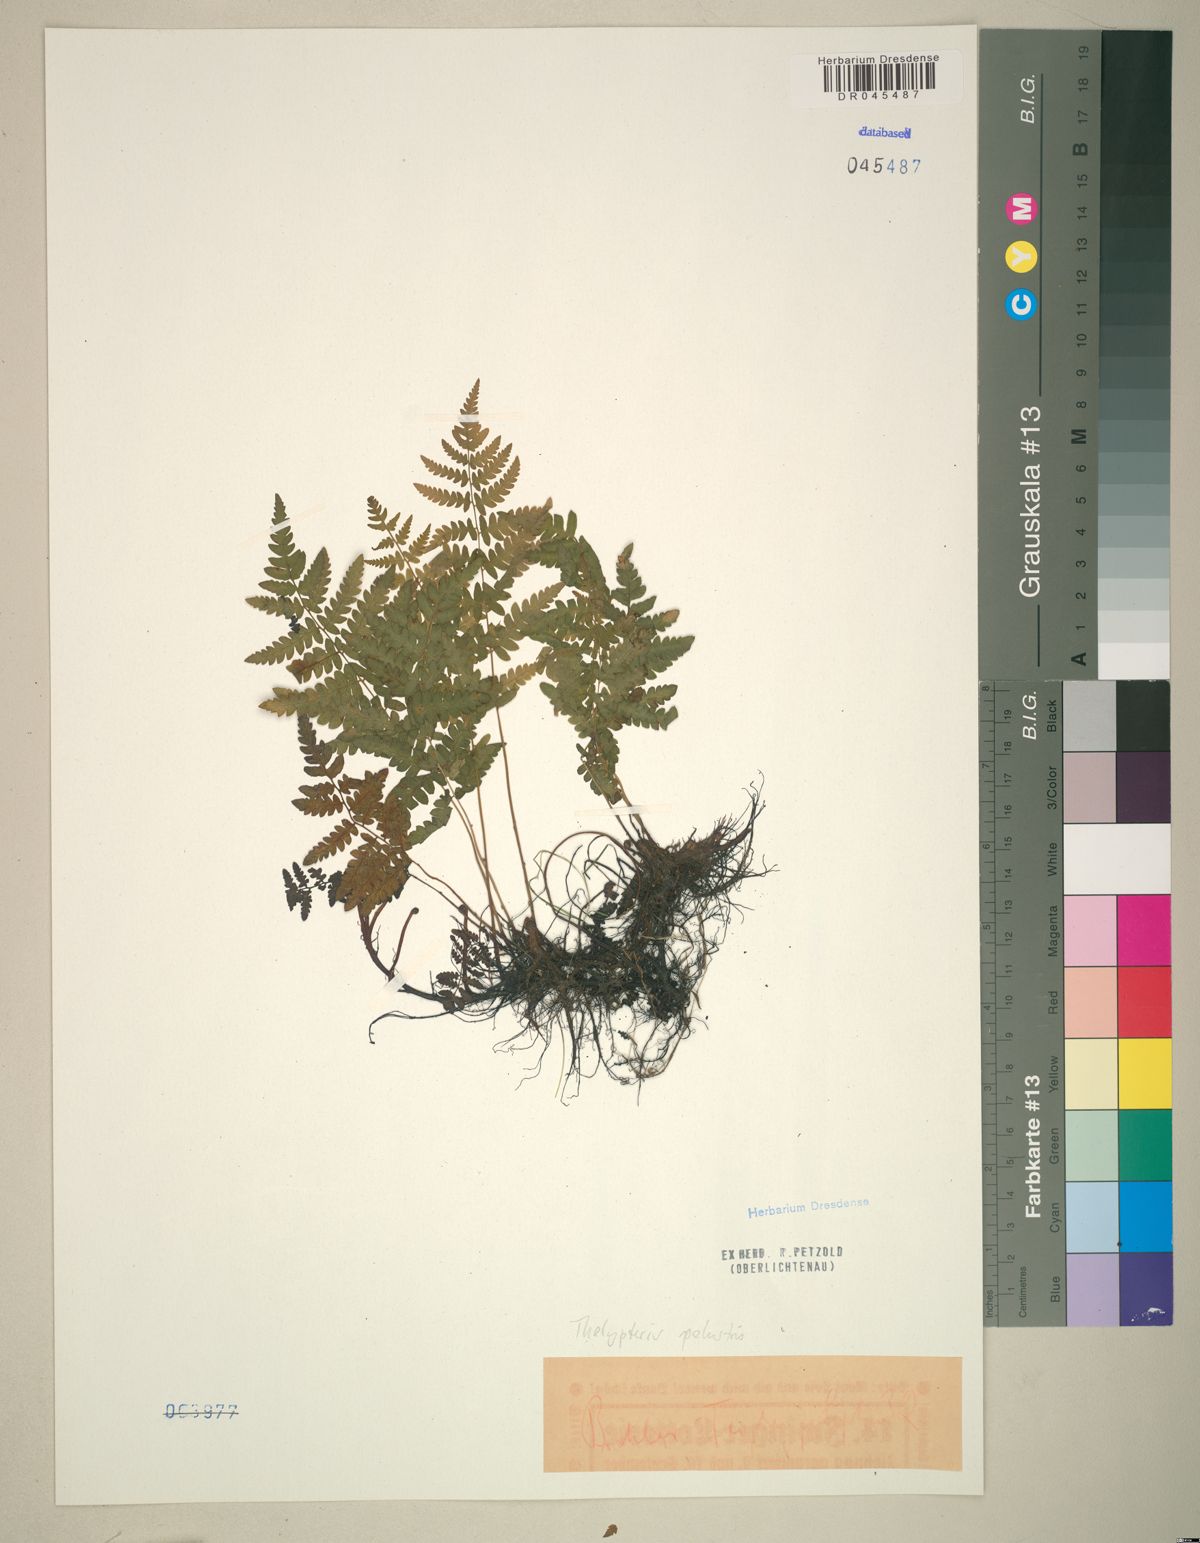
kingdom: Plantae
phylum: Tracheophyta
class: Polypodiopsida
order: Polypodiales
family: Thelypteridaceae
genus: Thelypteris
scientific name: Thelypteris palustris
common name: Marsh fern
